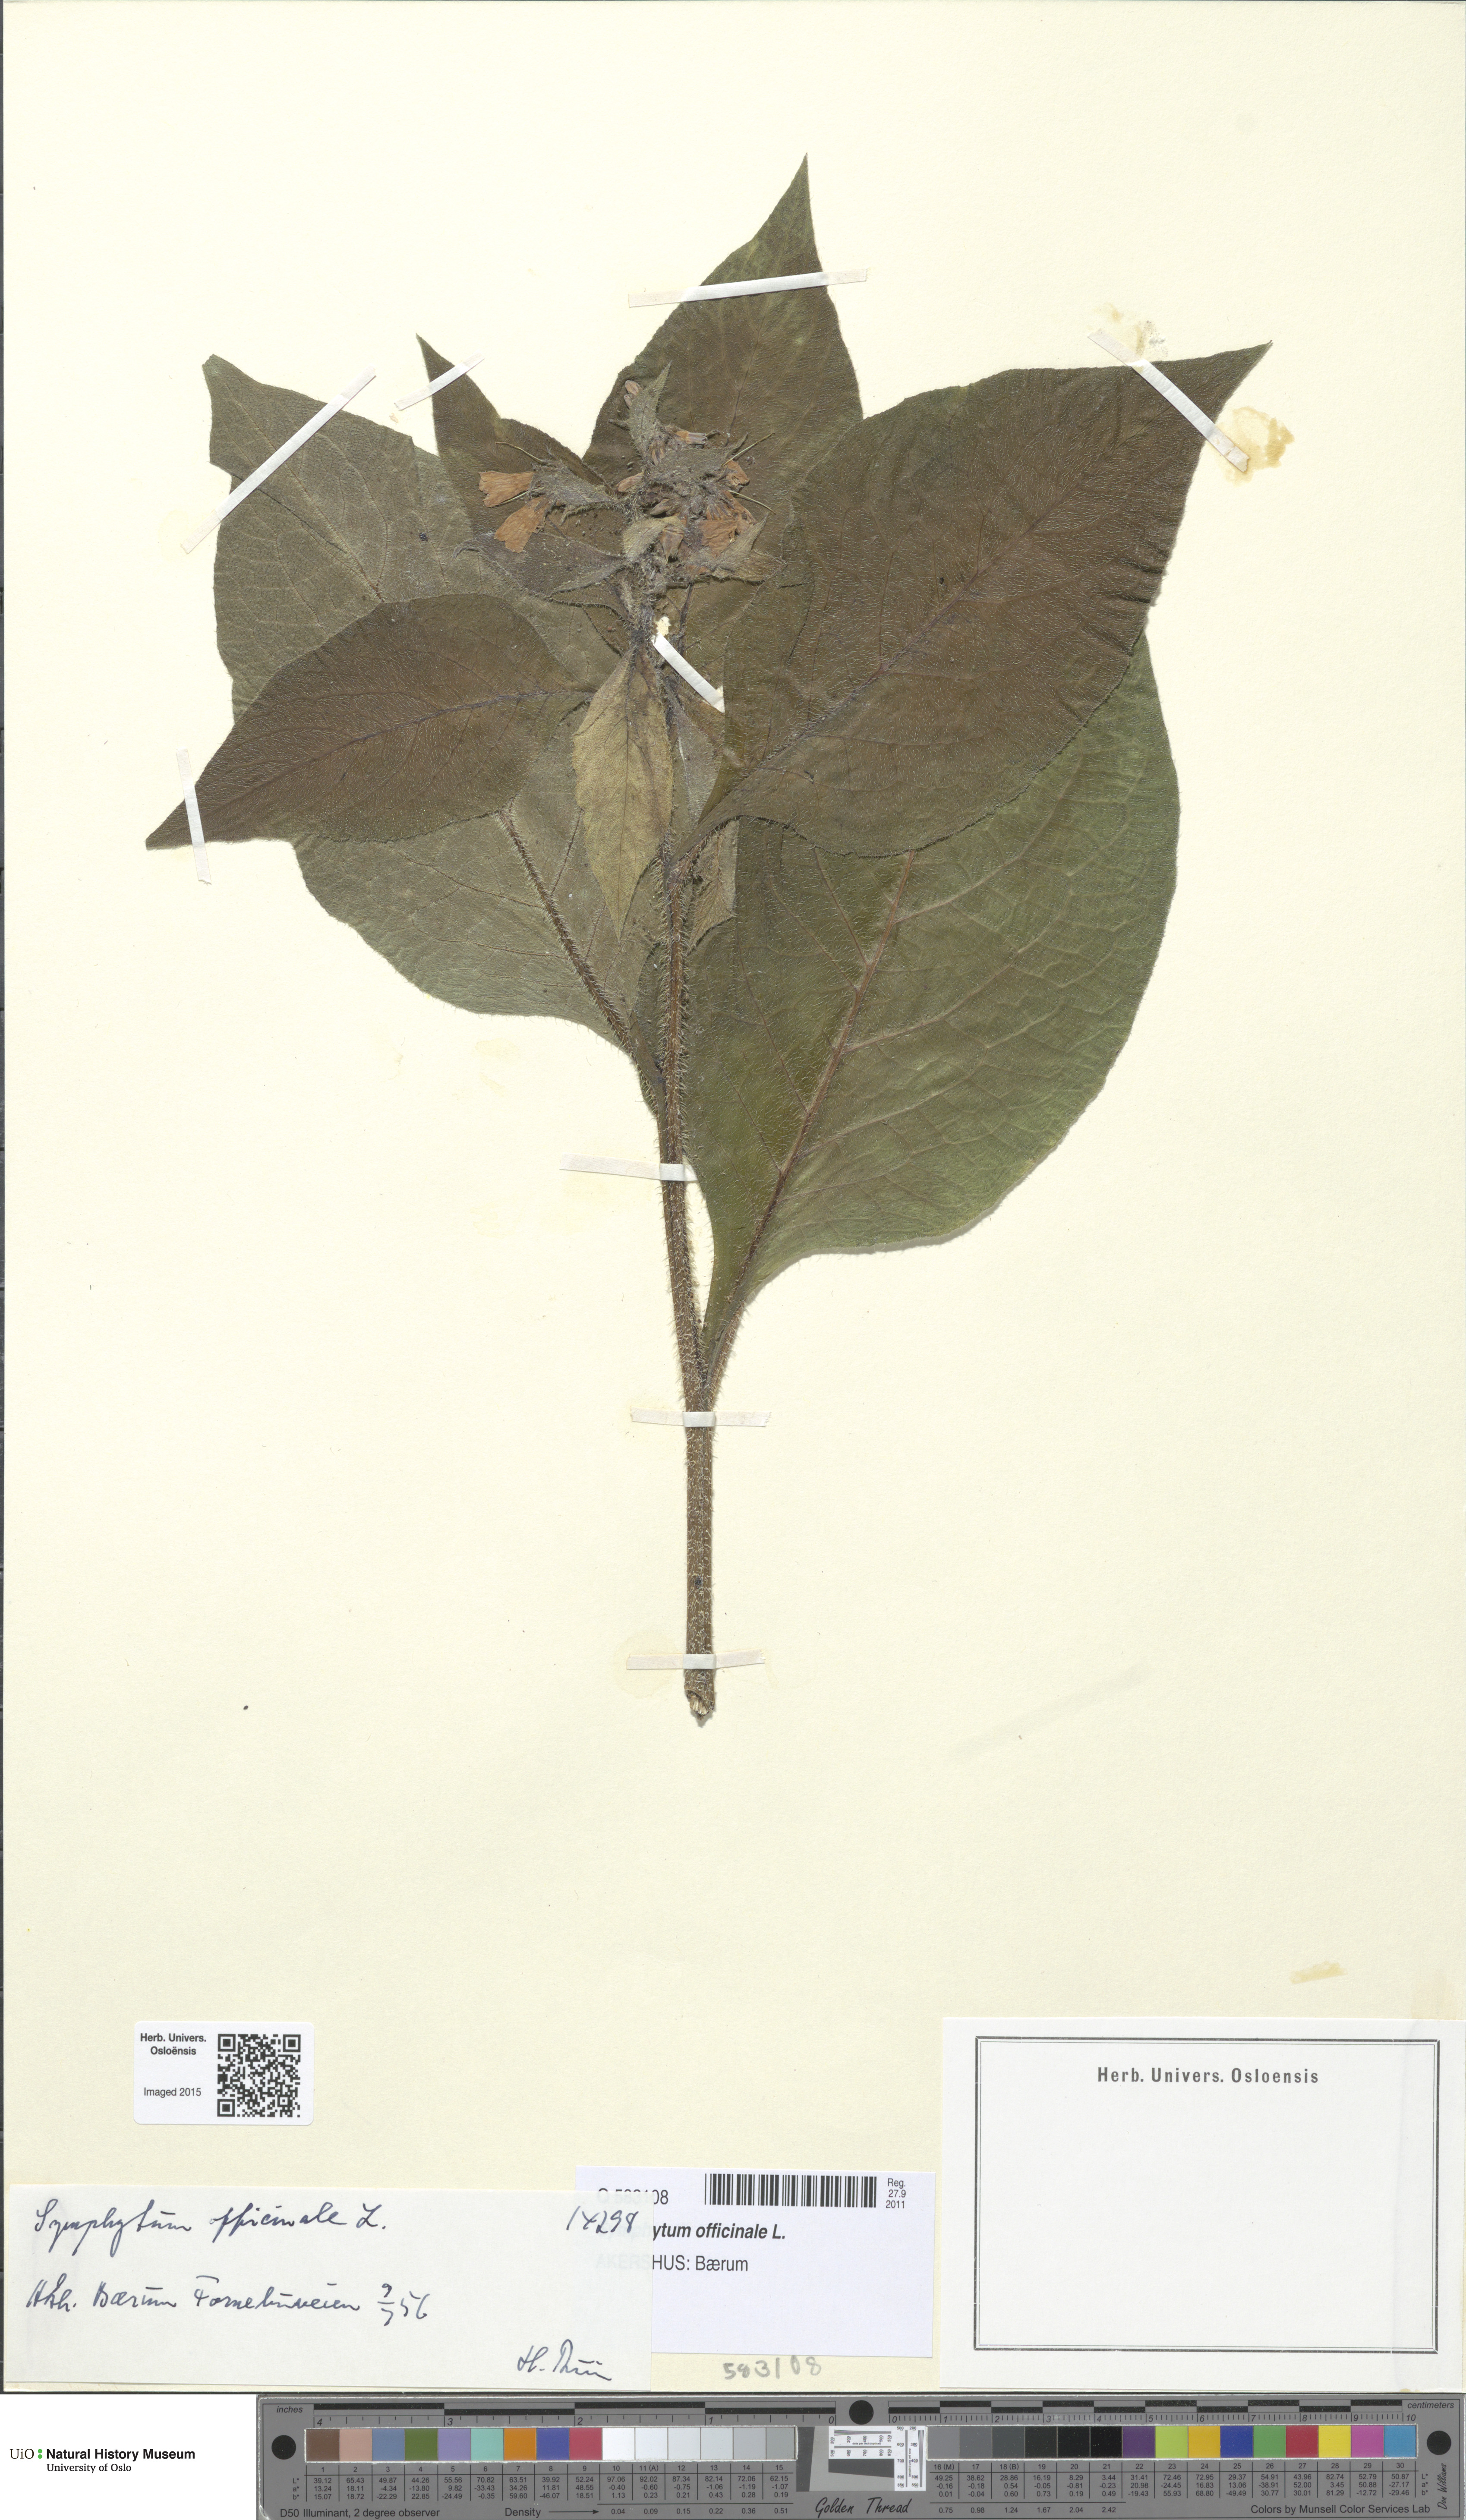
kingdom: Plantae
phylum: Tracheophyta
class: Magnoliopsida
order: Boraginales
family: Boraginaceae
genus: Symphytum
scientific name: Symphytum uplandicum
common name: Russian comfrey
